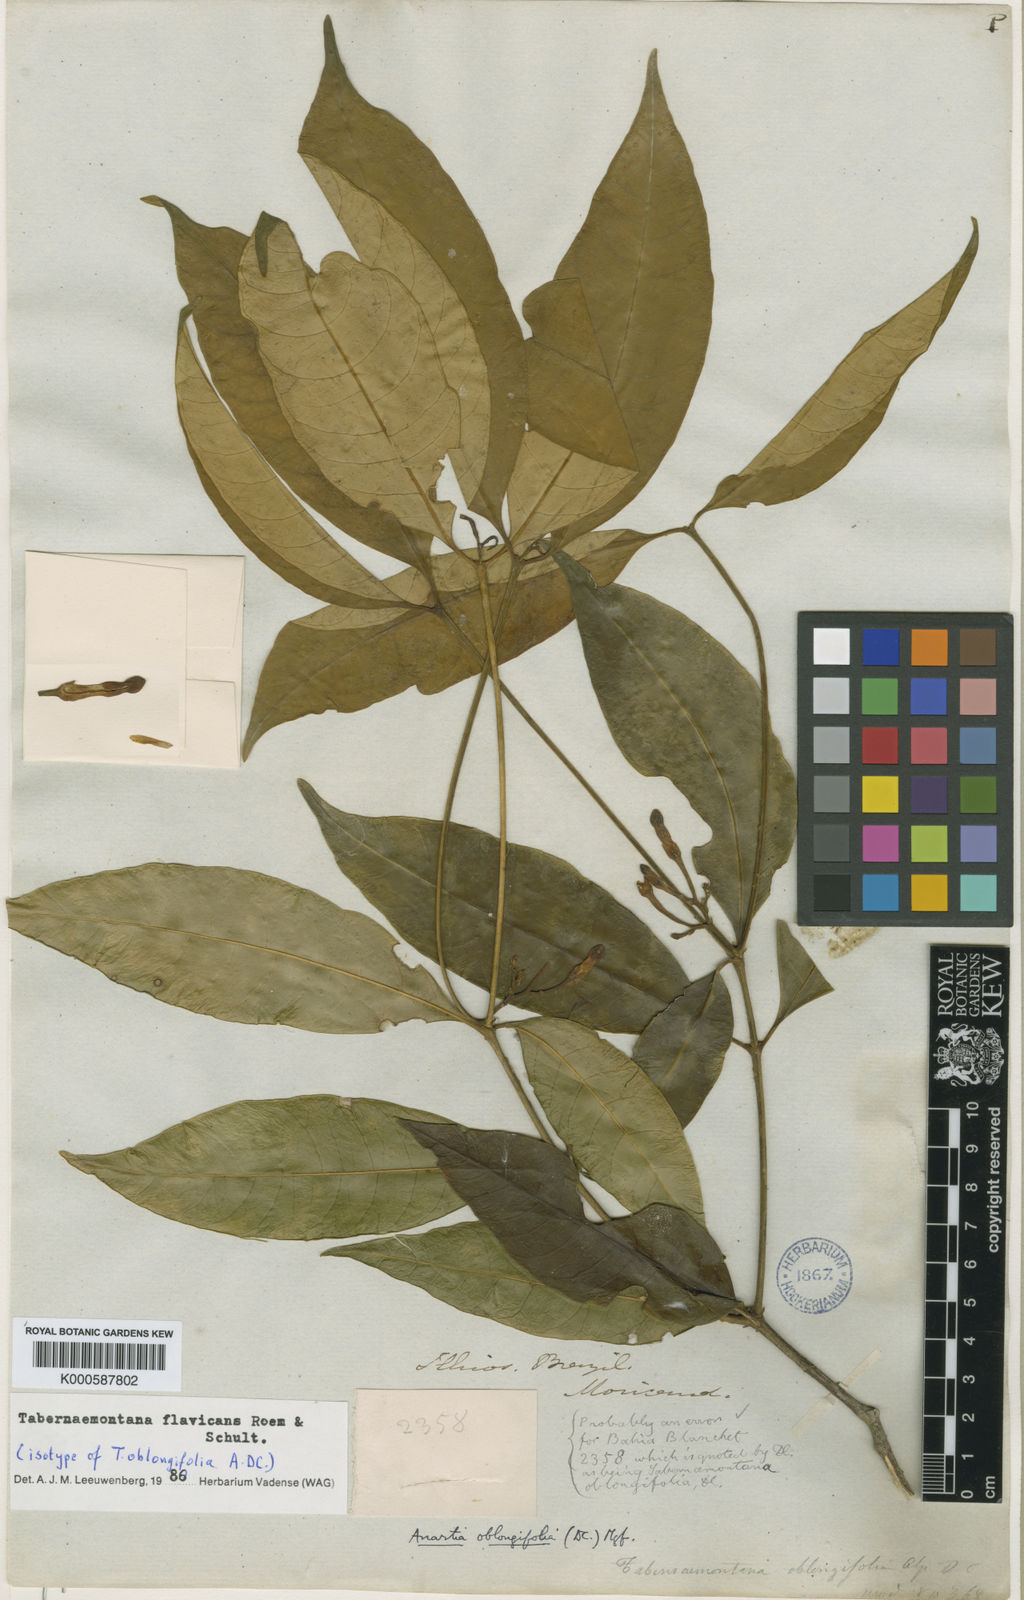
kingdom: Plantae
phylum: Tracheophyta
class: Magnoliopsida
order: Gentianales
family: Apocynaceae
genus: Tabernaemontana
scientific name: Tabernaemontana flavicans
